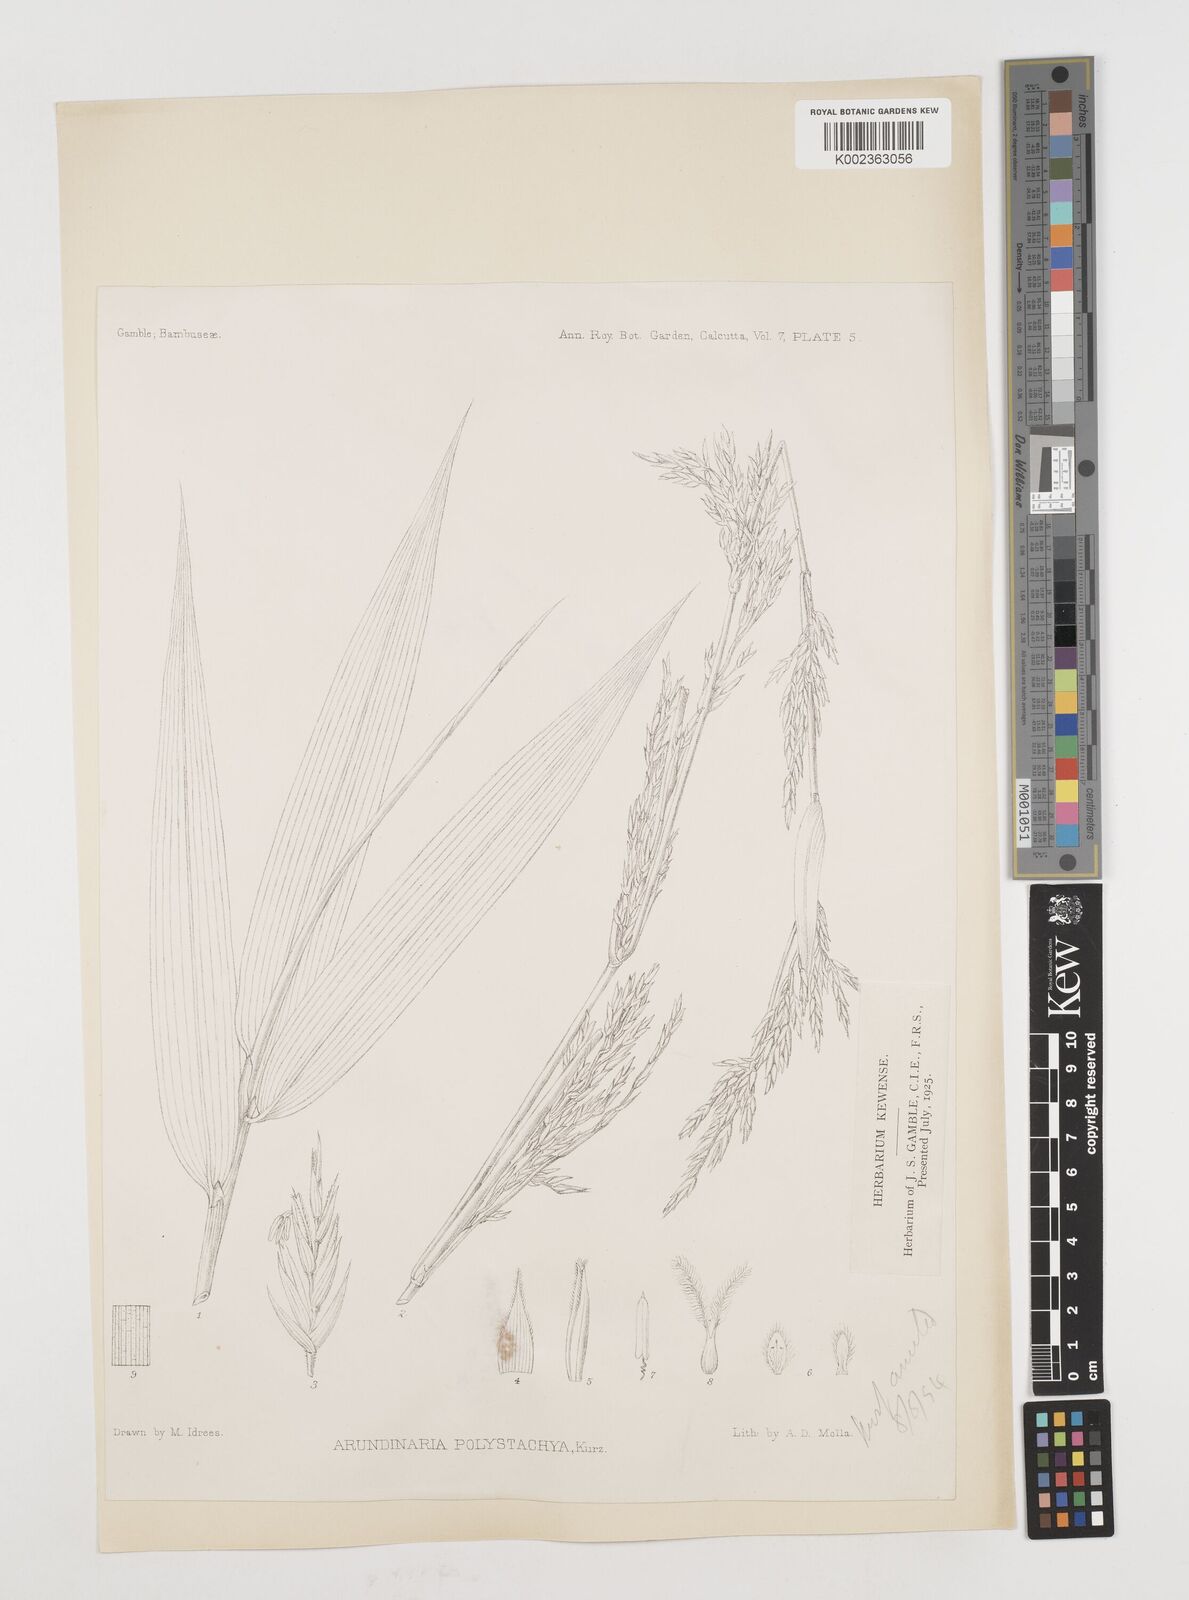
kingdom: Plantae
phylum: Tracheophyta
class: Liliopsida
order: Poales
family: Poaceae
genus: Drepanostachyum
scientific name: Drepanostachyum polystachyum
